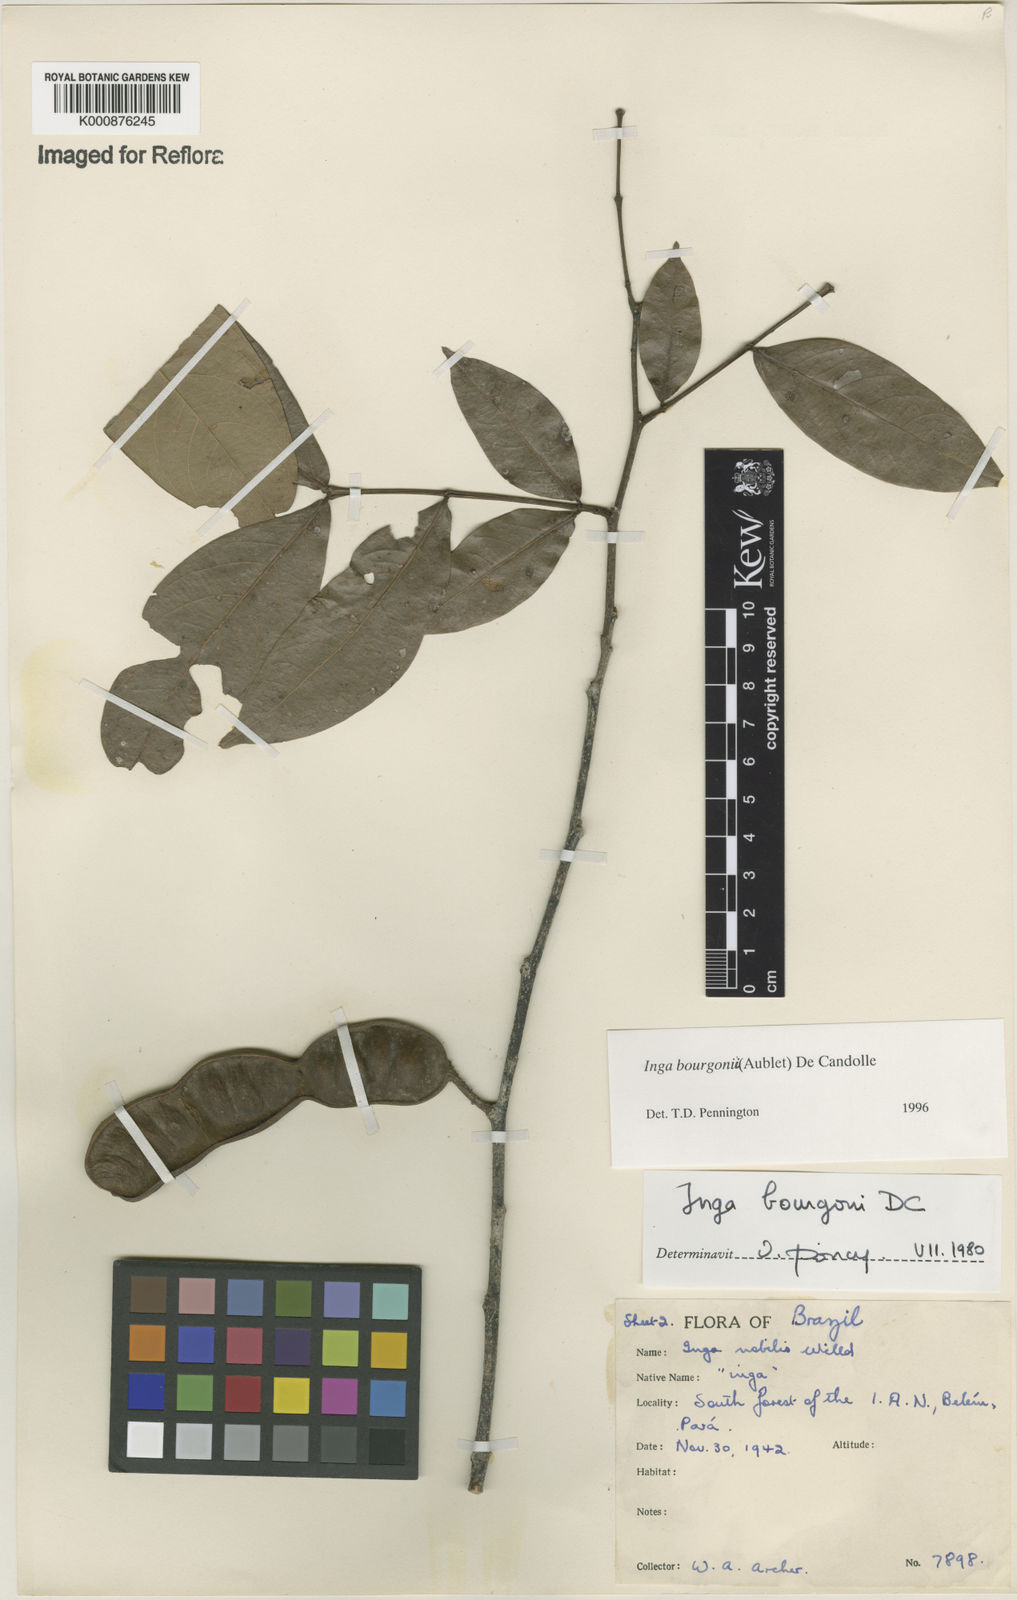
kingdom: Plantae
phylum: Tracheophyta
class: Magnoliopsida
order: Fabales
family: Fabaceae
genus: Inga
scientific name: Inga bourgoni
